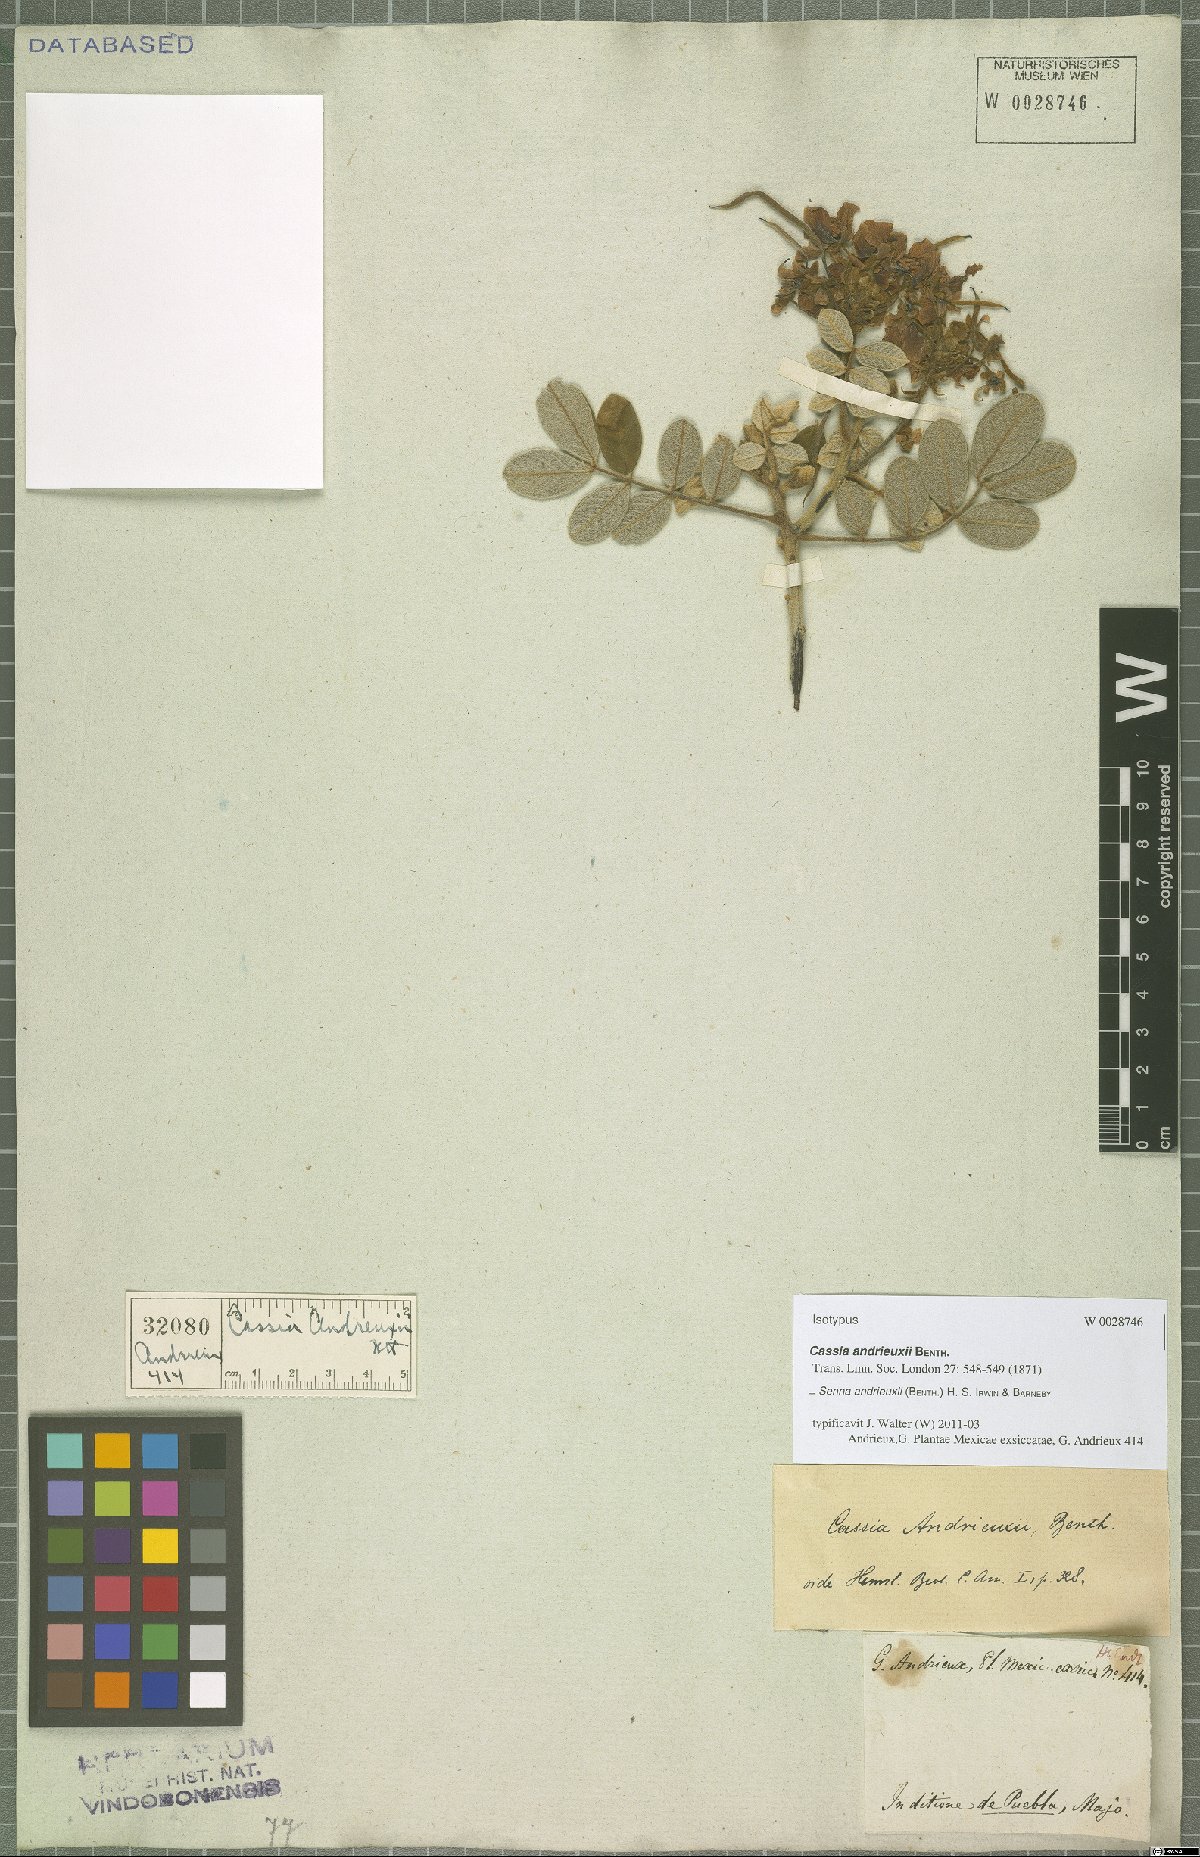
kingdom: Plantae
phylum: Tracheophyta
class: Magnoliopsida
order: Fabales
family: Fabaceae
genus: Senna
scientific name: Senna andrieuxii
